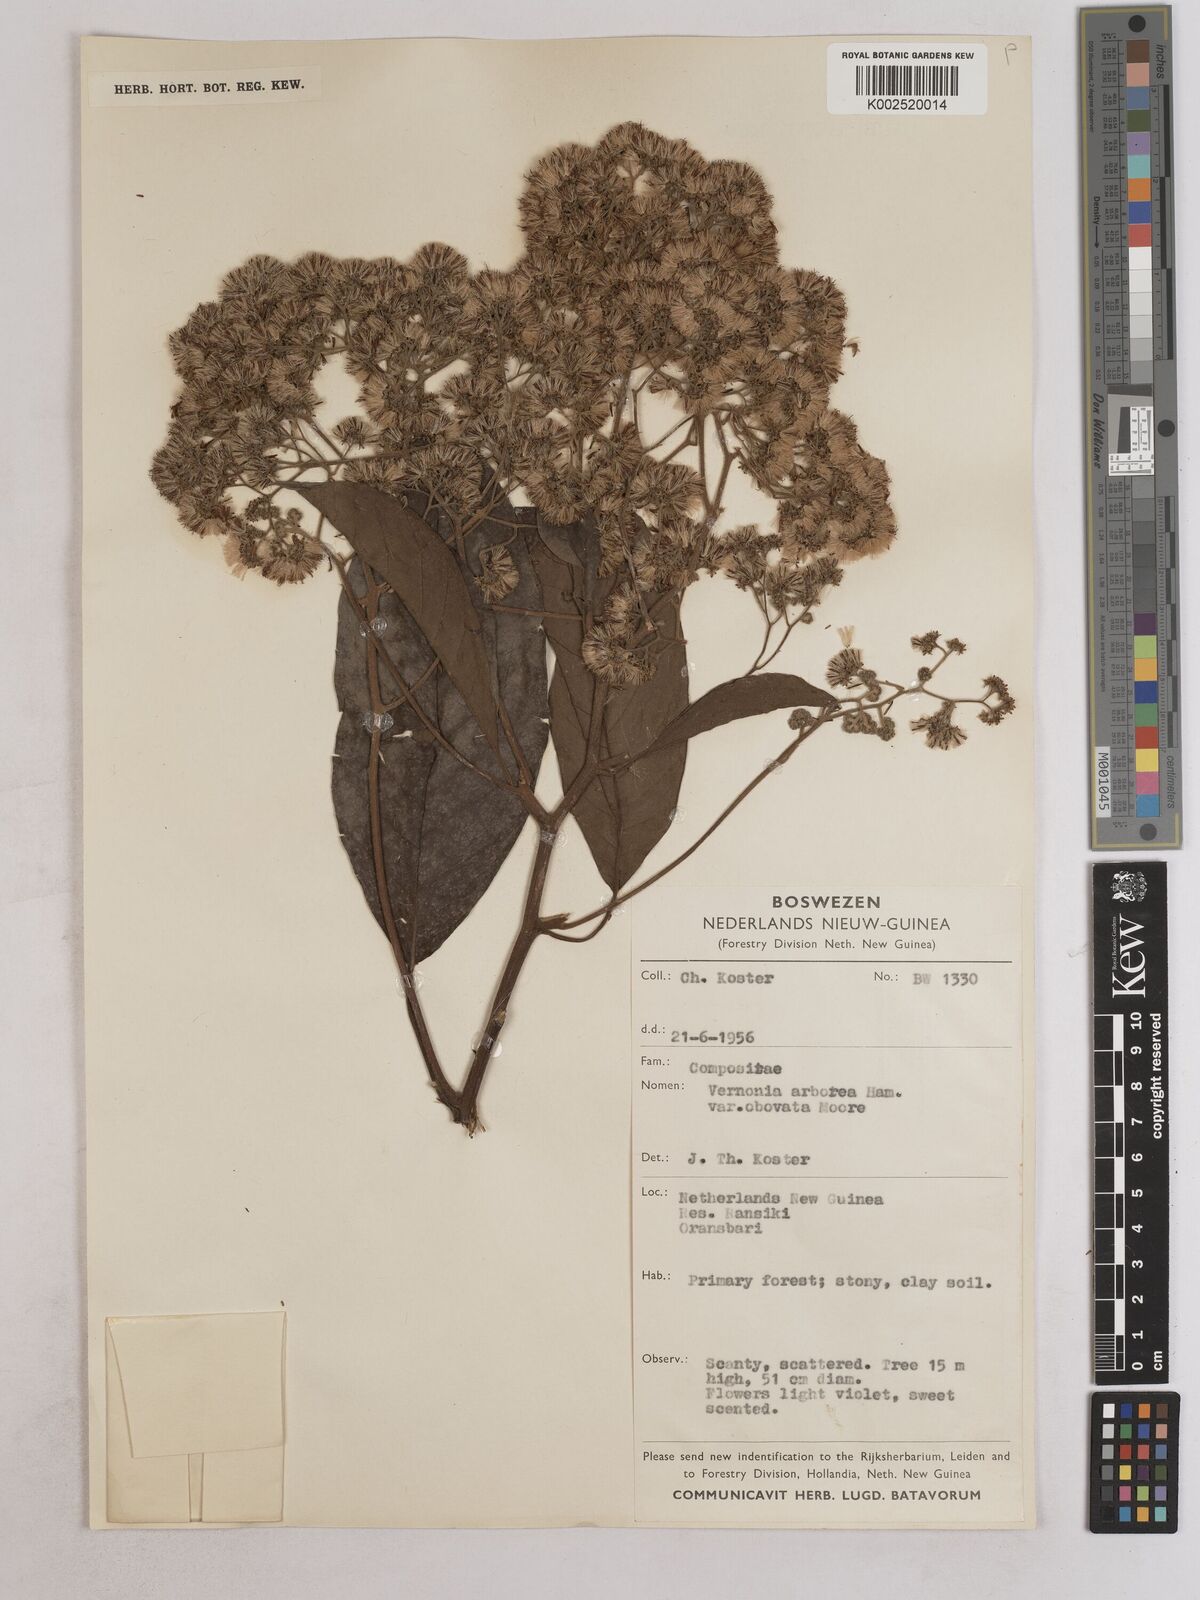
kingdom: Plantae
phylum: Tracheophyta
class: Magnoliopsida
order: Asterales
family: Asteraceae
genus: Strobocalyx
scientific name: Strobocalyx arborea
